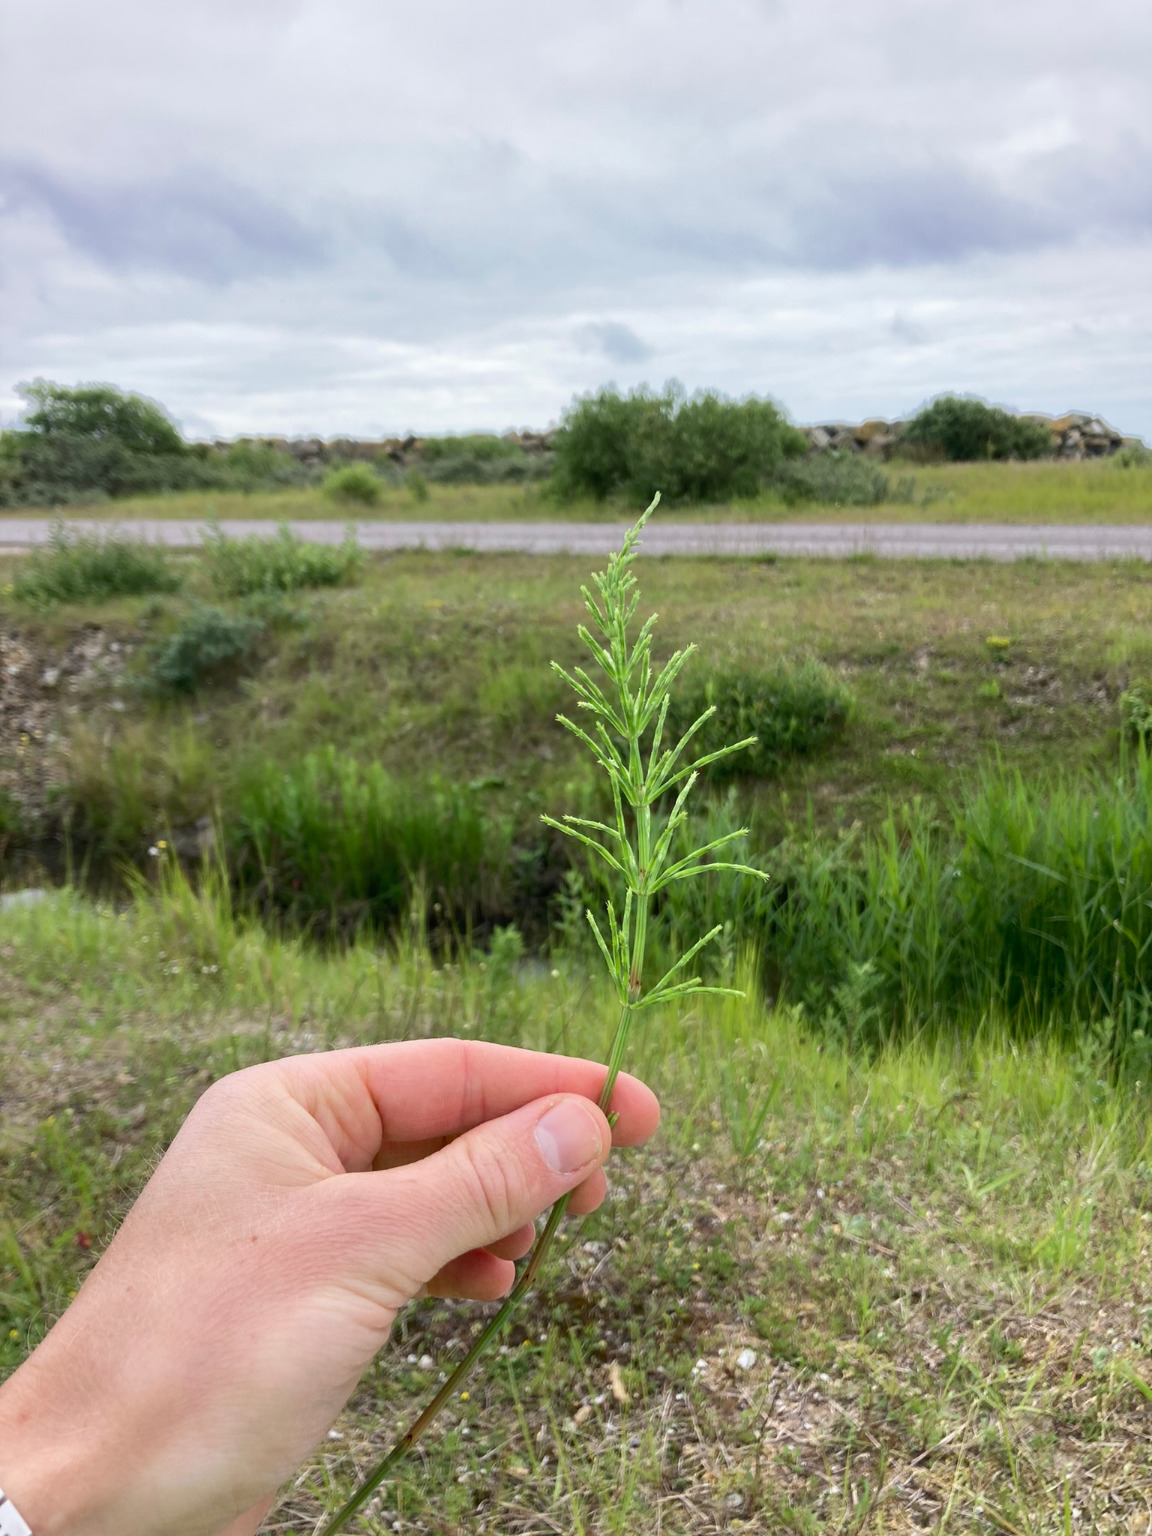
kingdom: Plantae
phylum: Tracheophyta
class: Polypodiopsida
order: Equisetales
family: Equisetaceae
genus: Equisetum
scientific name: Equisetum arvense
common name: Ager-padderok
